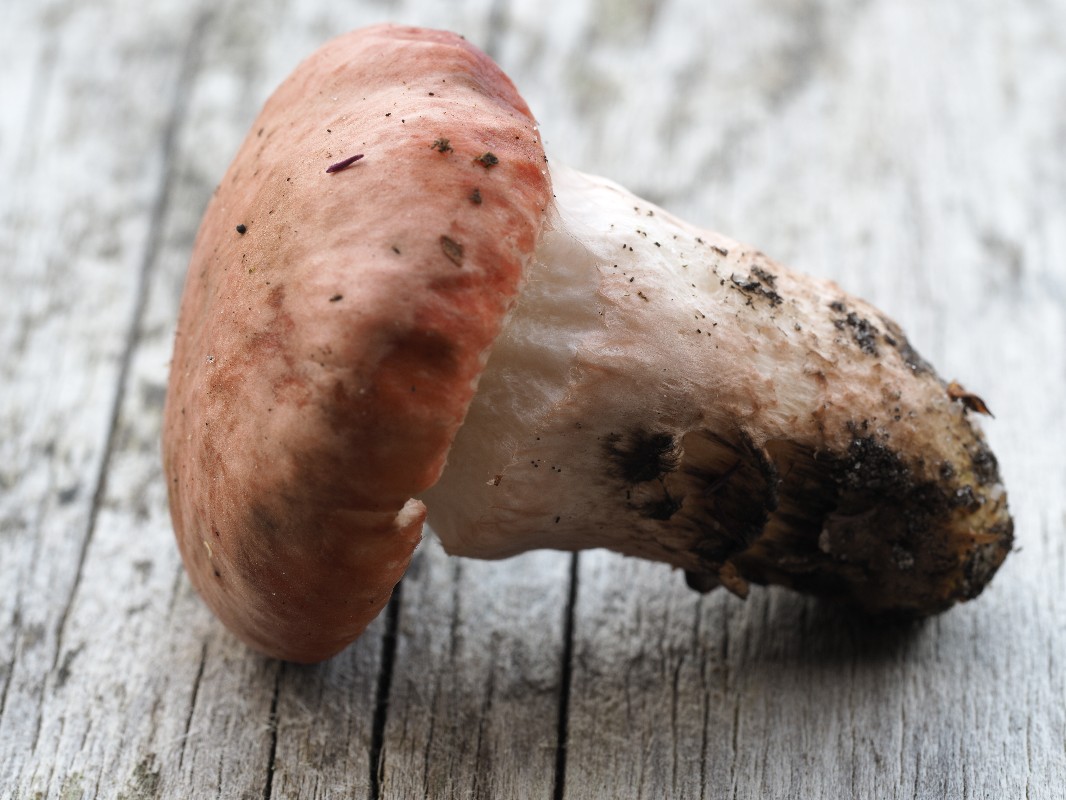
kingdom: Fungi
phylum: Basidiomycota
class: Agaricomycetes
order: Boletales
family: Gomphidiaceae
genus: Gomphidius
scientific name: Gomphidius roseus
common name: rosenrød slimslør
